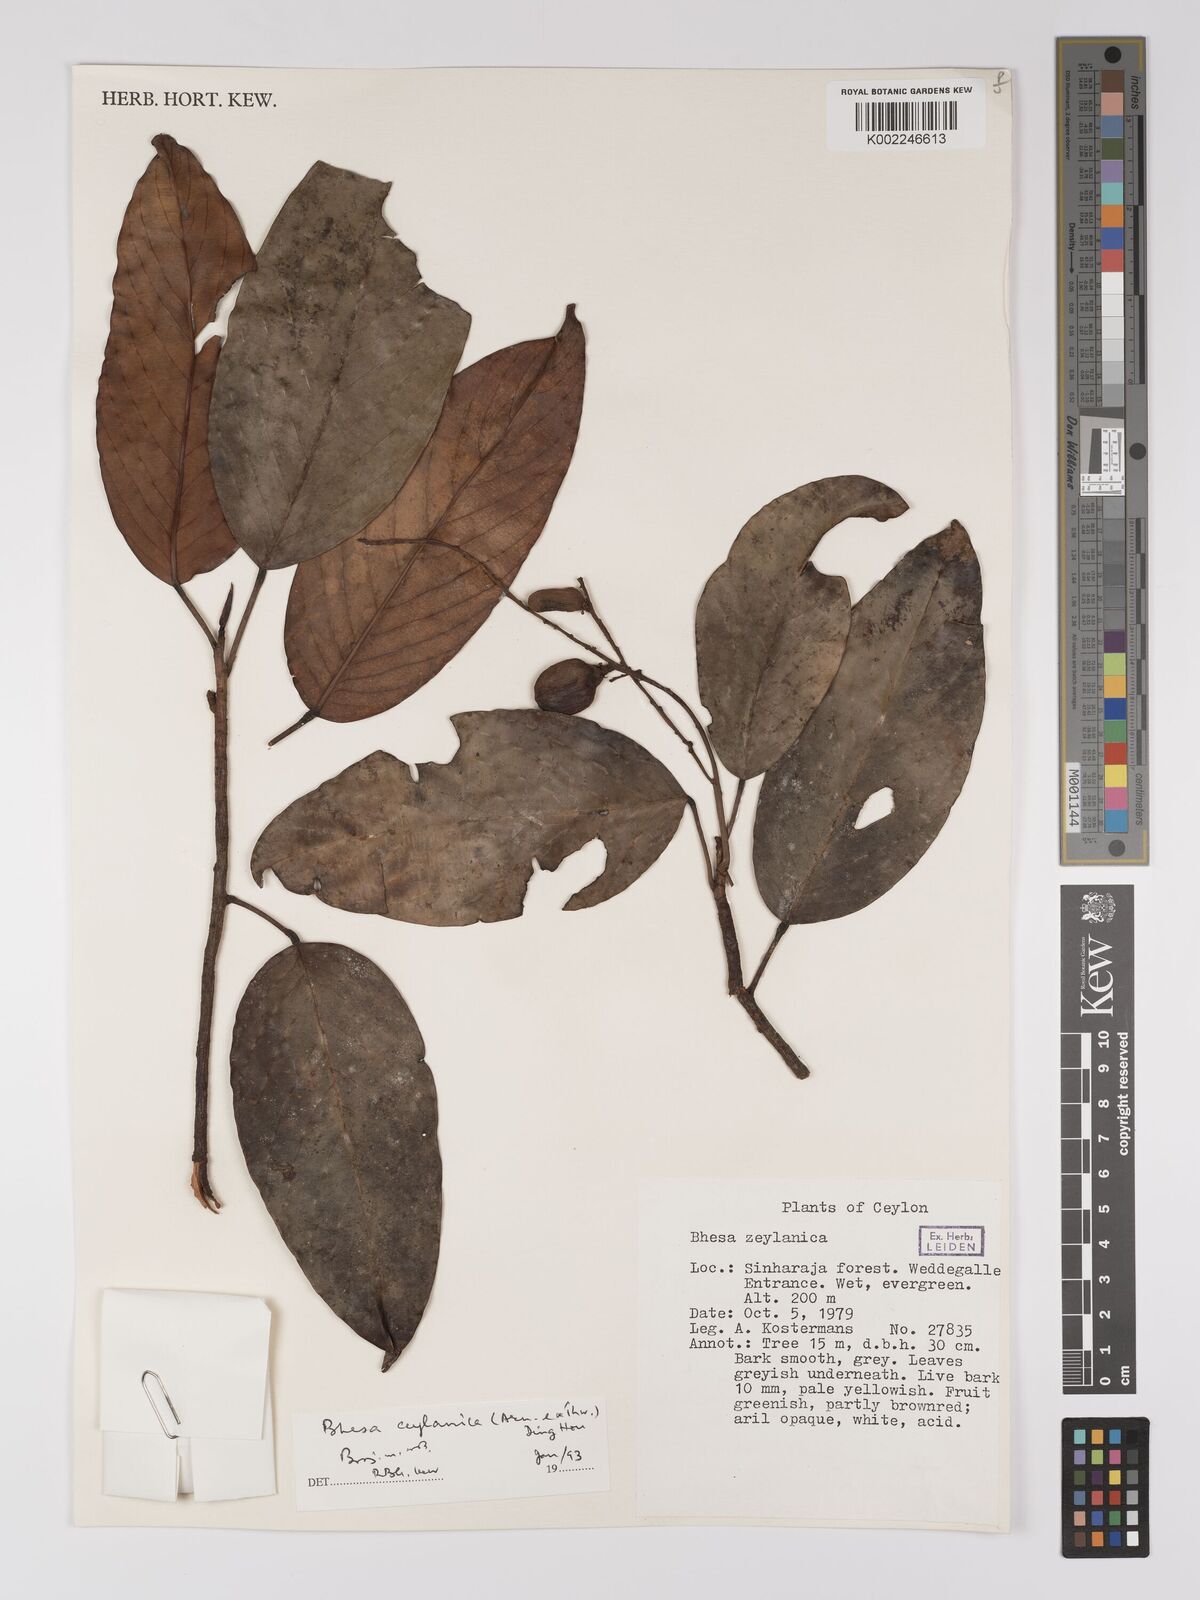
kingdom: Plantae
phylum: Tracheophyta
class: Magnoliopsida
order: Malpighiales
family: Centroplacaceae
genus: Bhesa
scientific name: Bhesa ceylanica
